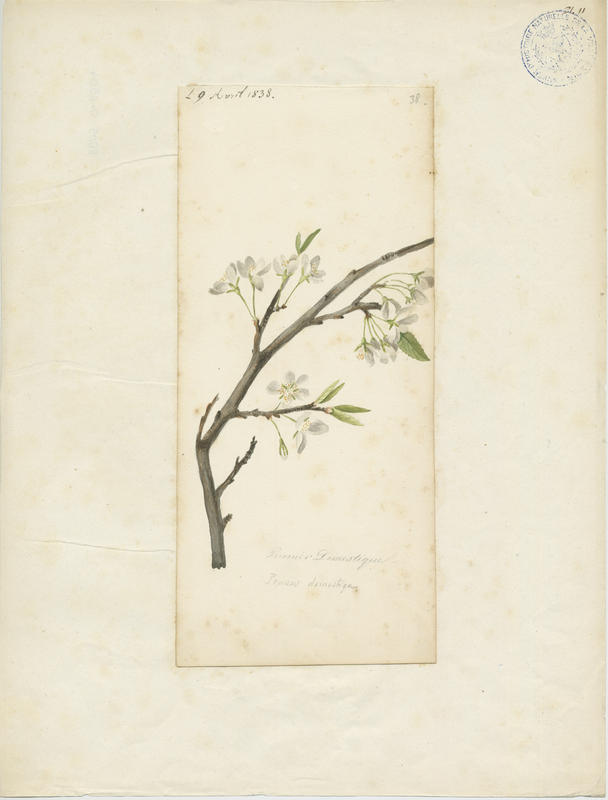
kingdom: Plantae
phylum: Tracheophyta
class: Magnoliopsida
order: Rosales
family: Rosaceae
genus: Prunus
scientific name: Prunus domestica
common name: Wild plum
